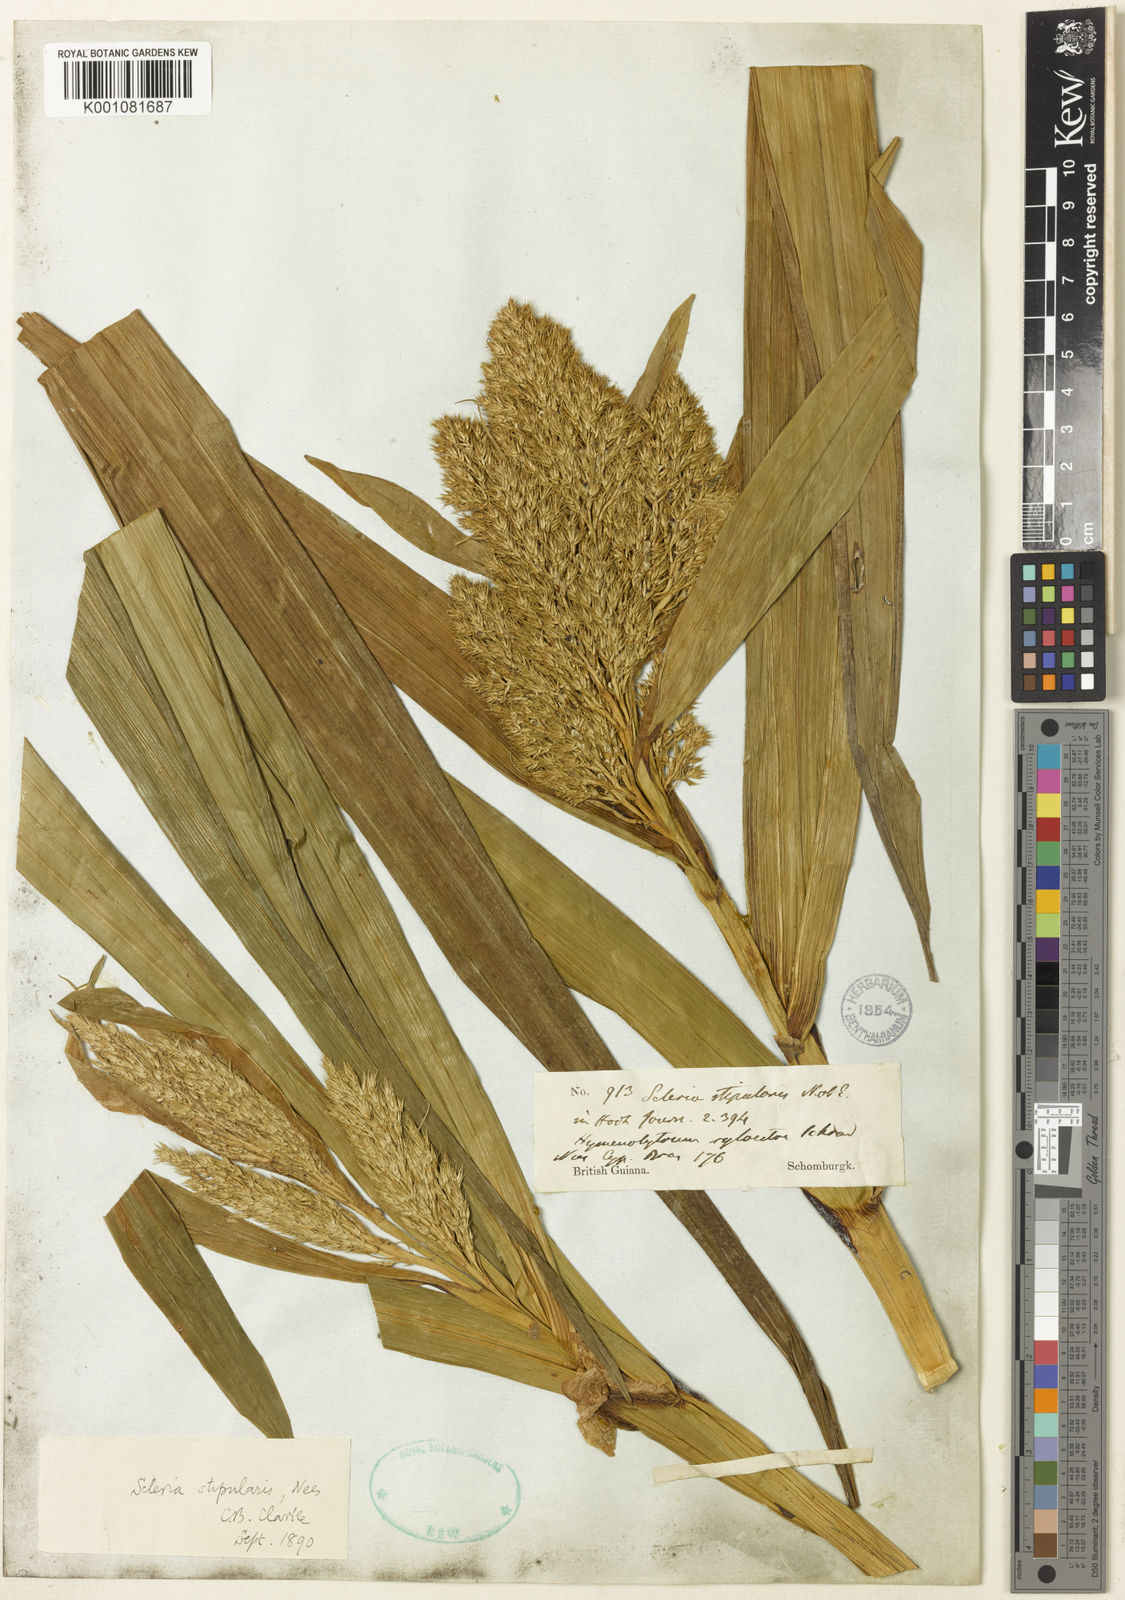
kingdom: Plantae
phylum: Tracheophyta
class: Liliopsida
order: Poales
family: Cyperaceae
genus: Scleria
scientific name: Scleria stipularis
